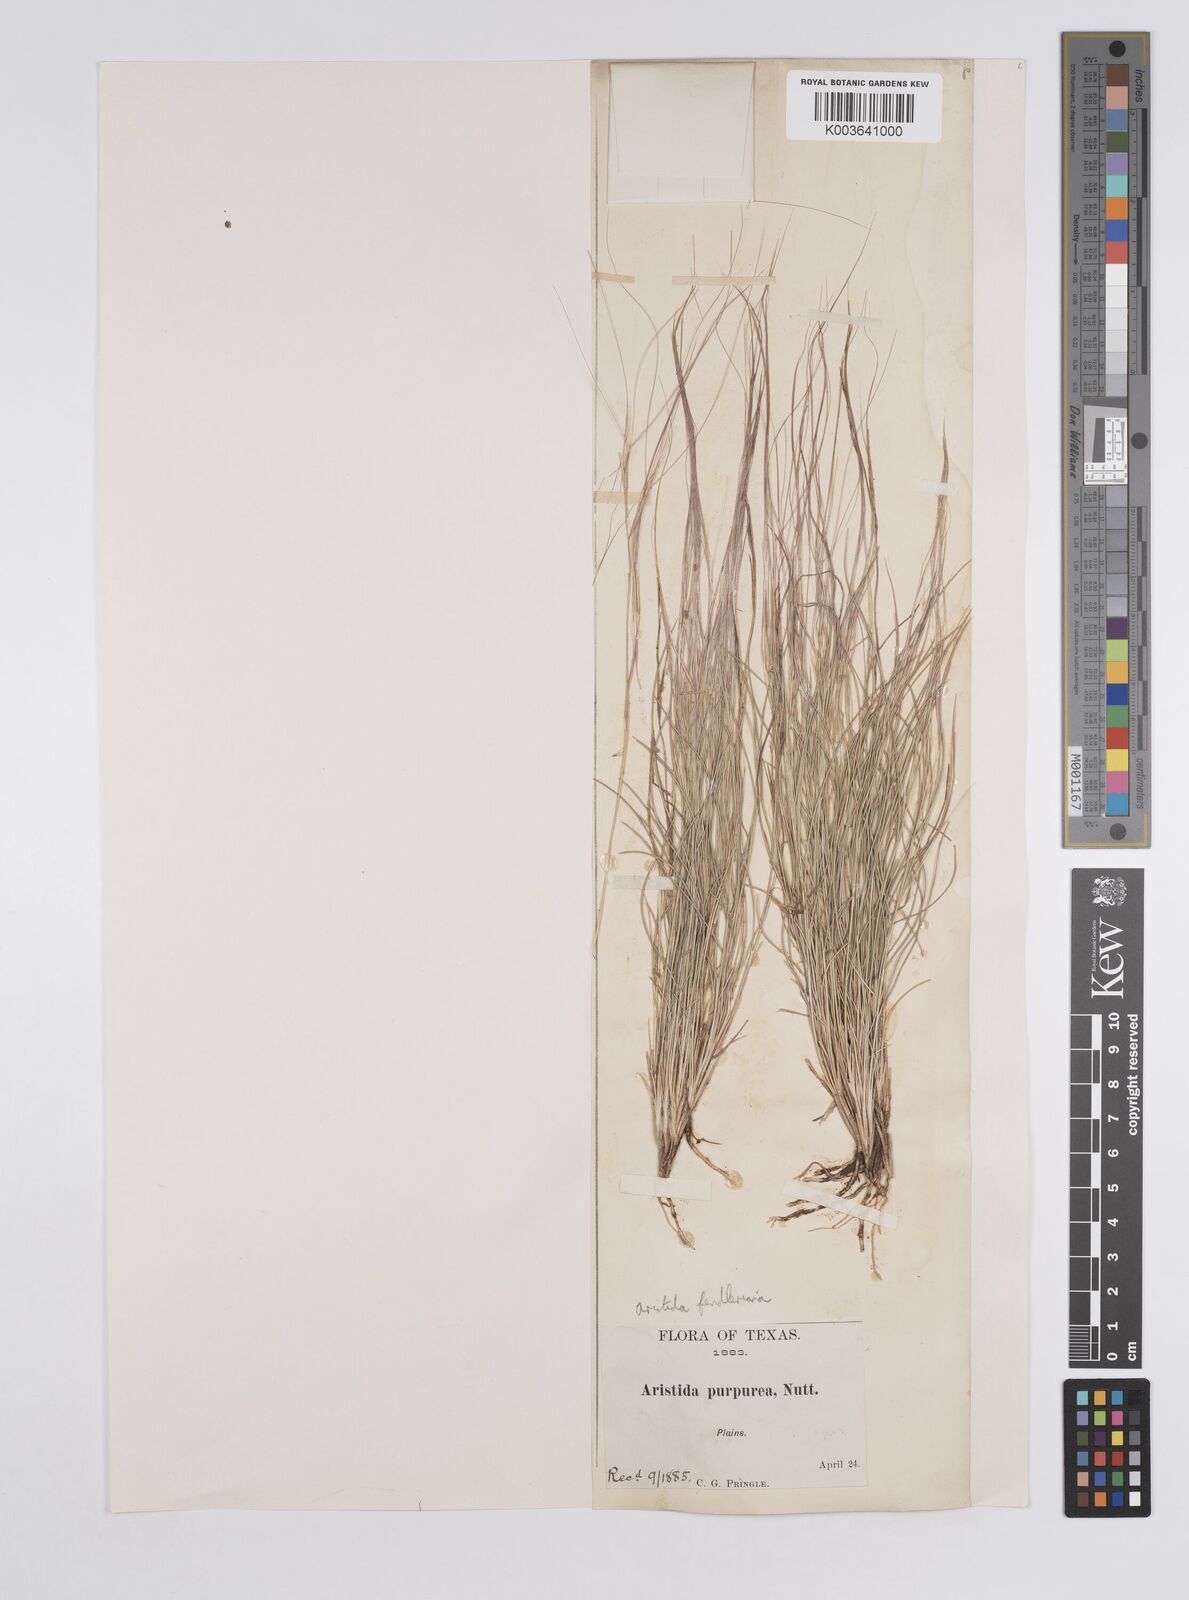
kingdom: Plantae
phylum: Tracheophyta
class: Liliopsida
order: Poales
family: Poaceae
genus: Aristida
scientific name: Aristida purpurea
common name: Purple threeawn
